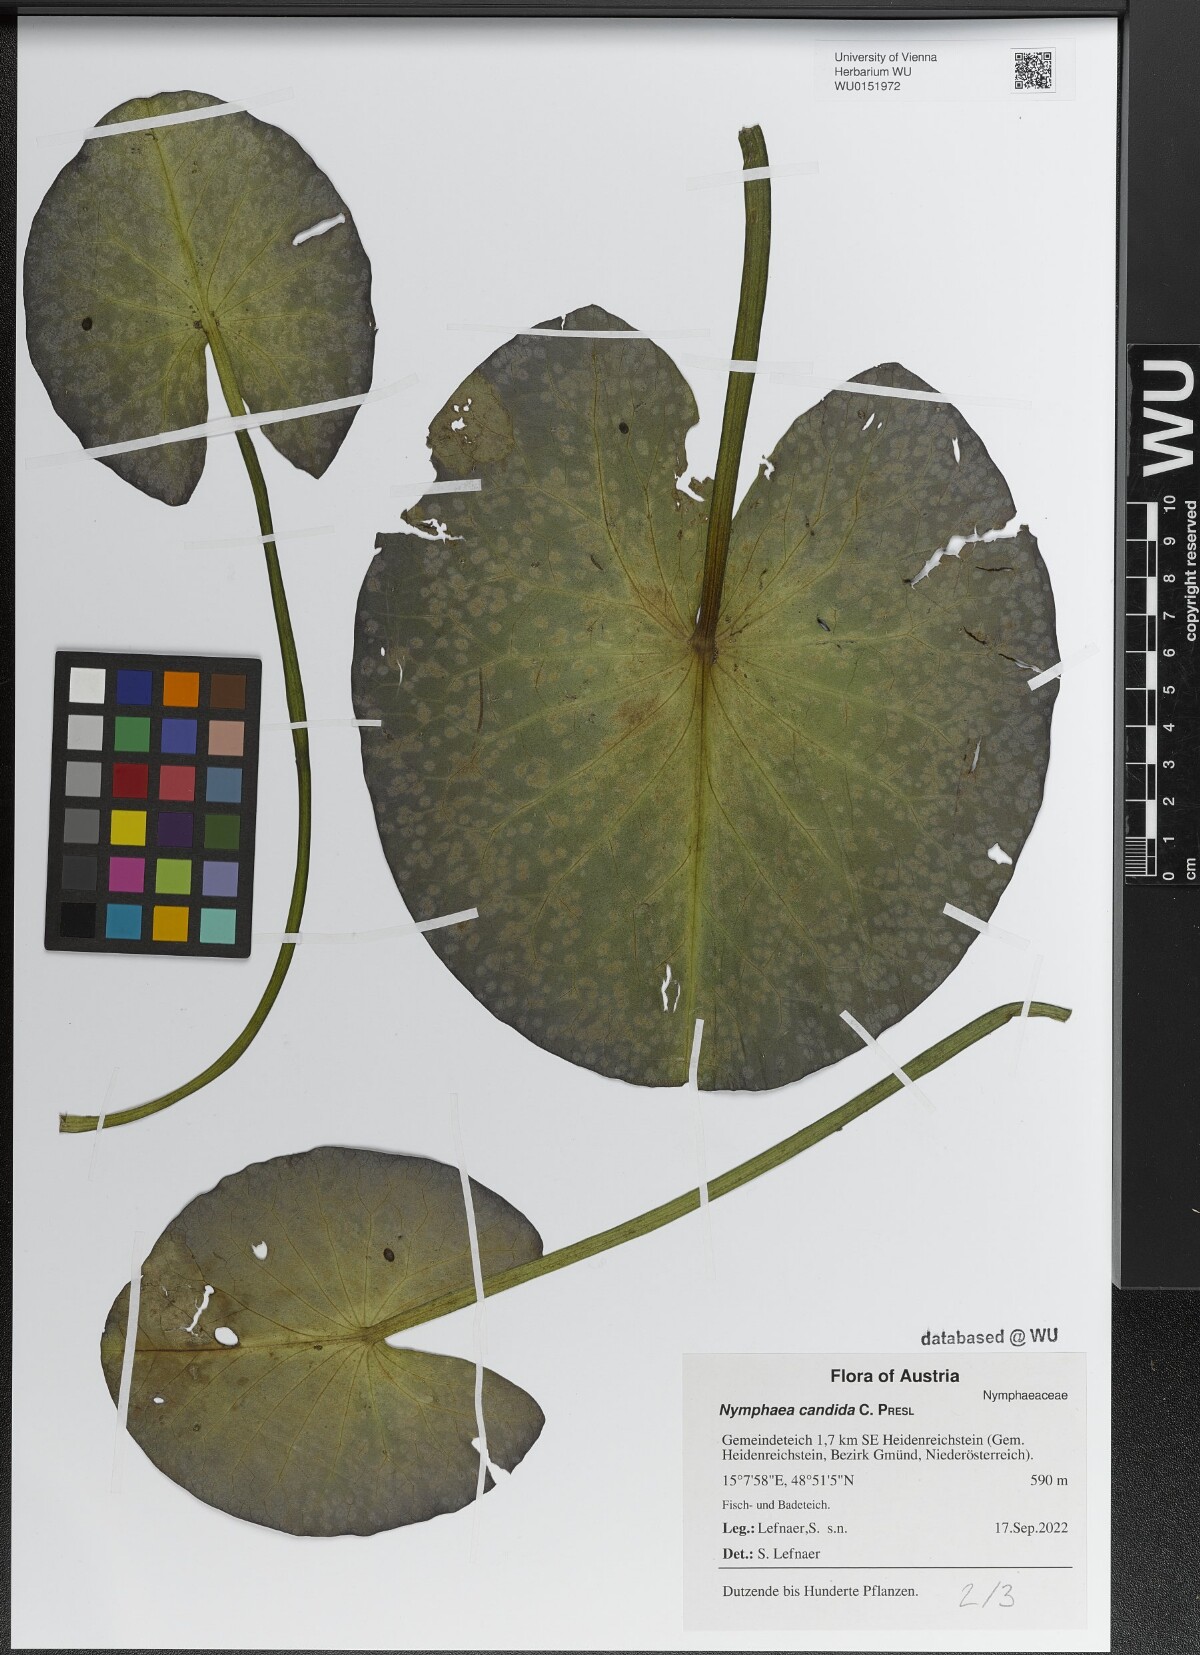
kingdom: Plantae
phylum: Tracheophyta
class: Magnoliopsida
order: Nymphaeales
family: Nymphaeaceae
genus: Nymphaea
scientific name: Nymphaea candida
